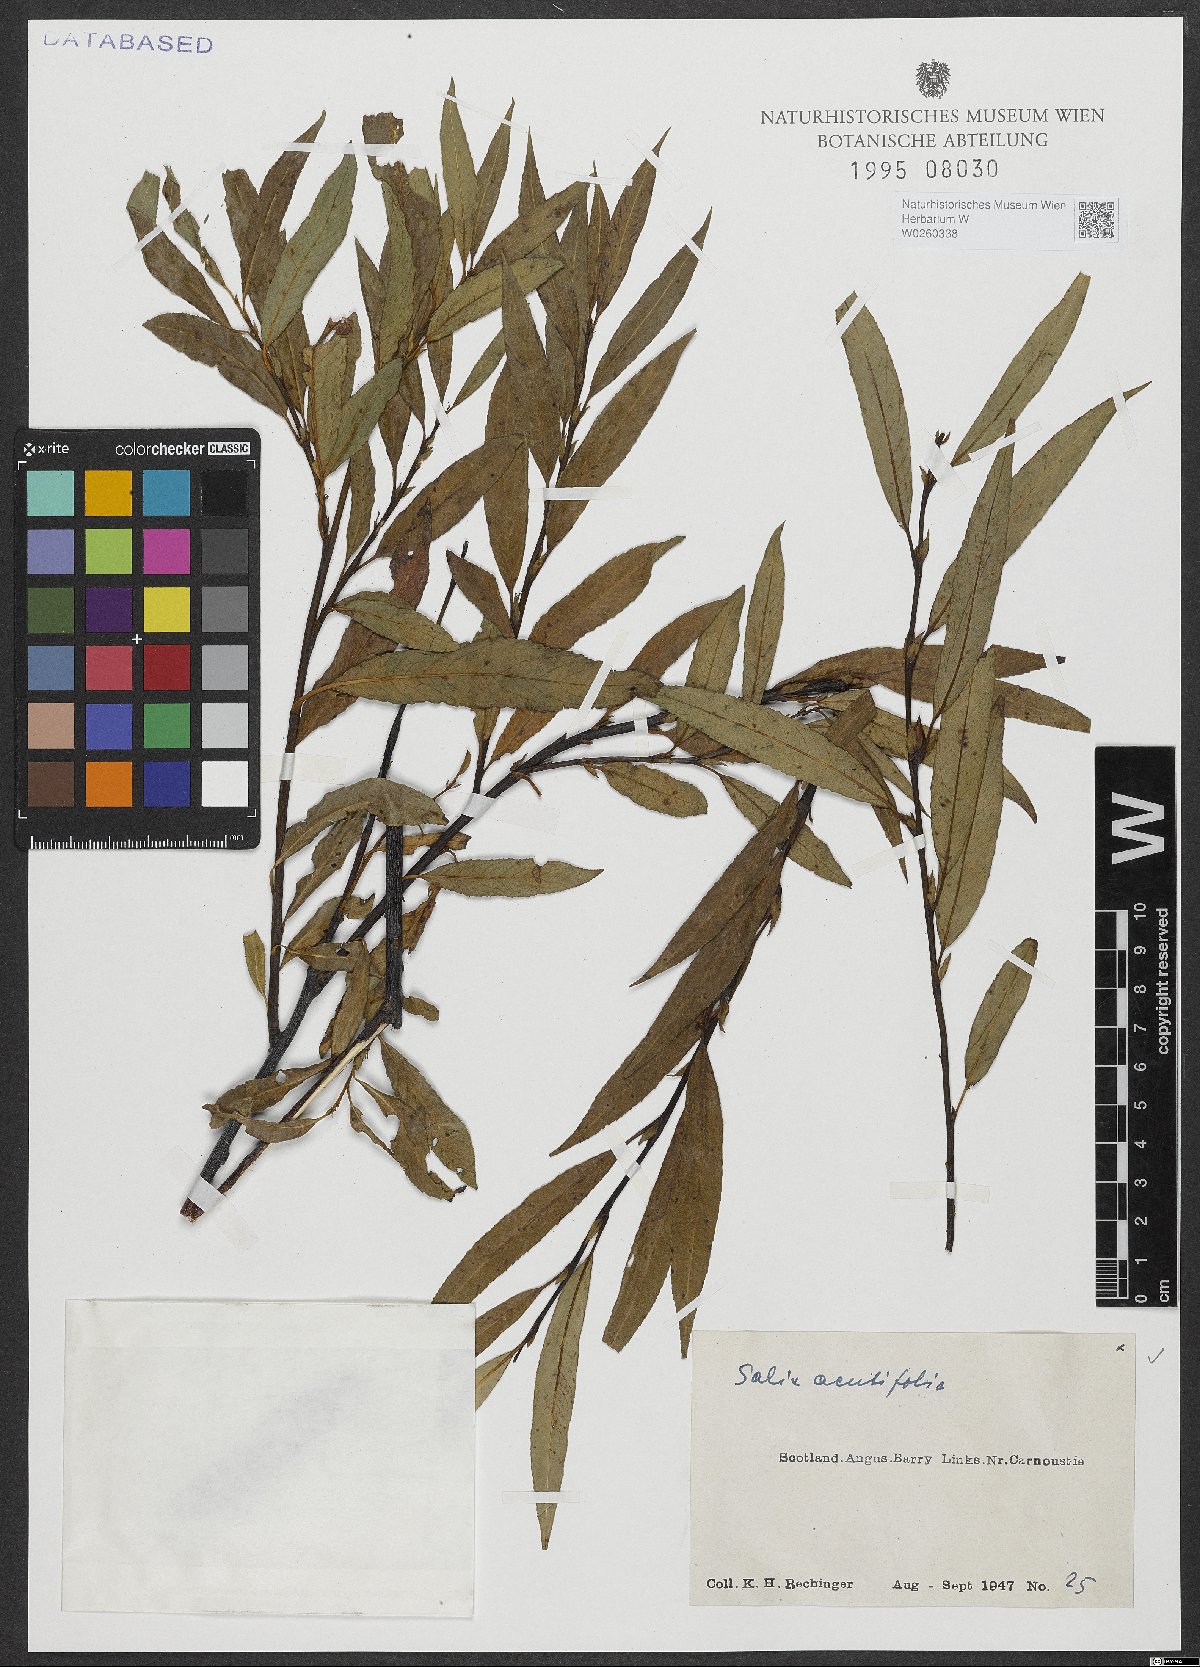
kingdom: Plantae
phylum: Tracheophyta
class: Magnoliopsida
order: Malpighiales
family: Salicaceae
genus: Salix
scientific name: Salix acutifolia
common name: Siberian violet-willow
